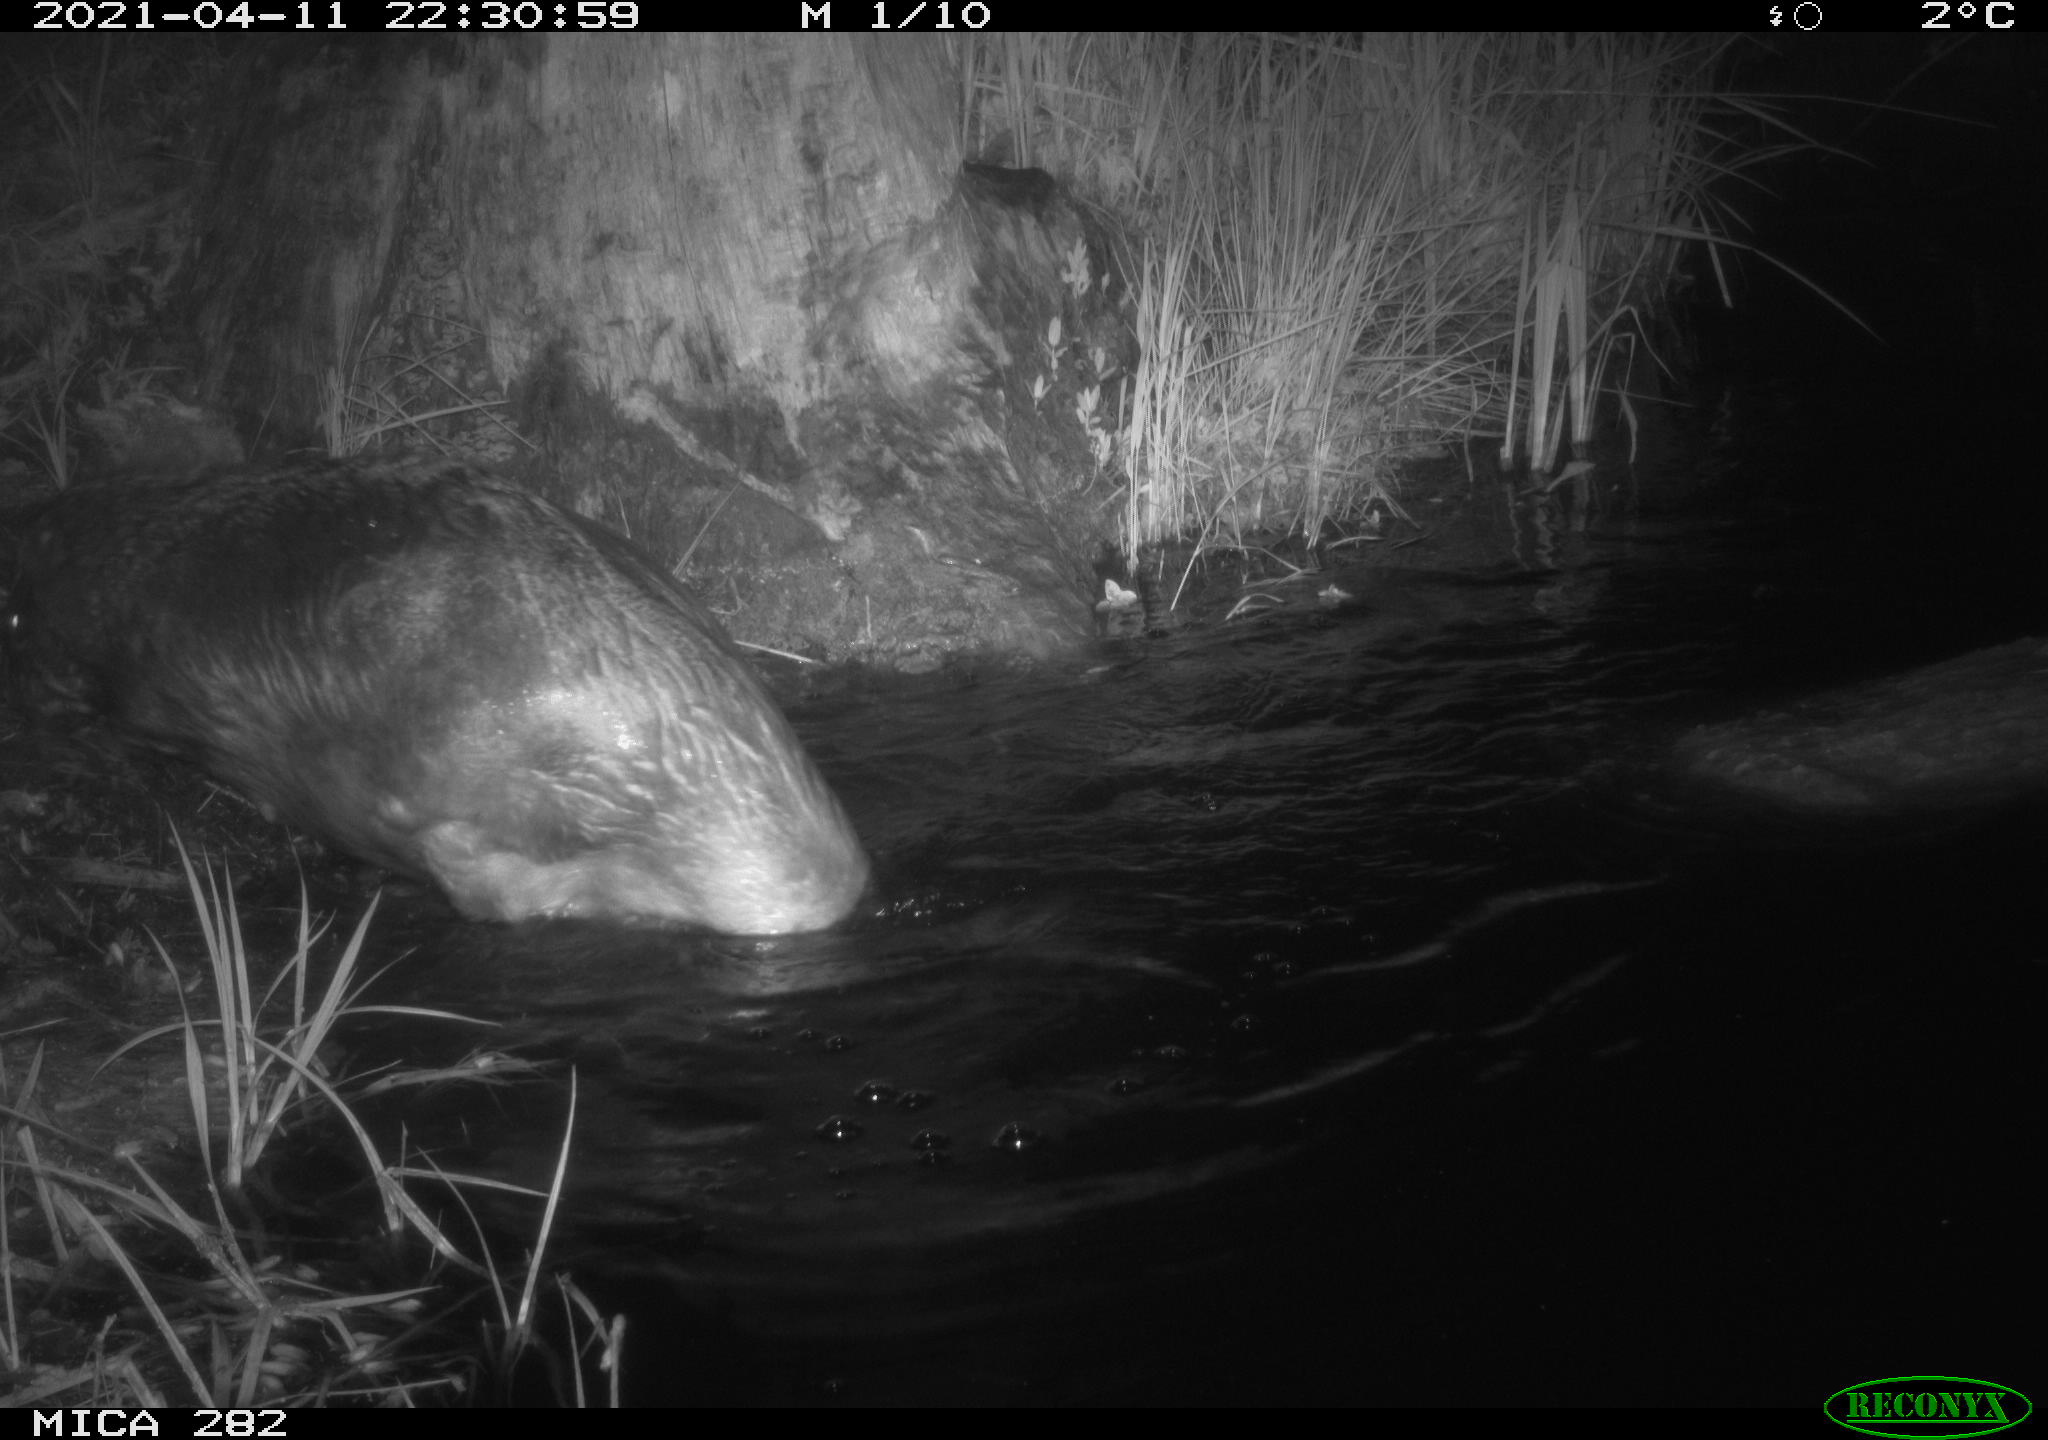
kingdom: Animalia
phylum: Chordata
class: Mammalia
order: Rodentia
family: Castoridae
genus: Castor
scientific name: Castor fiber
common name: Eurasian beaver
